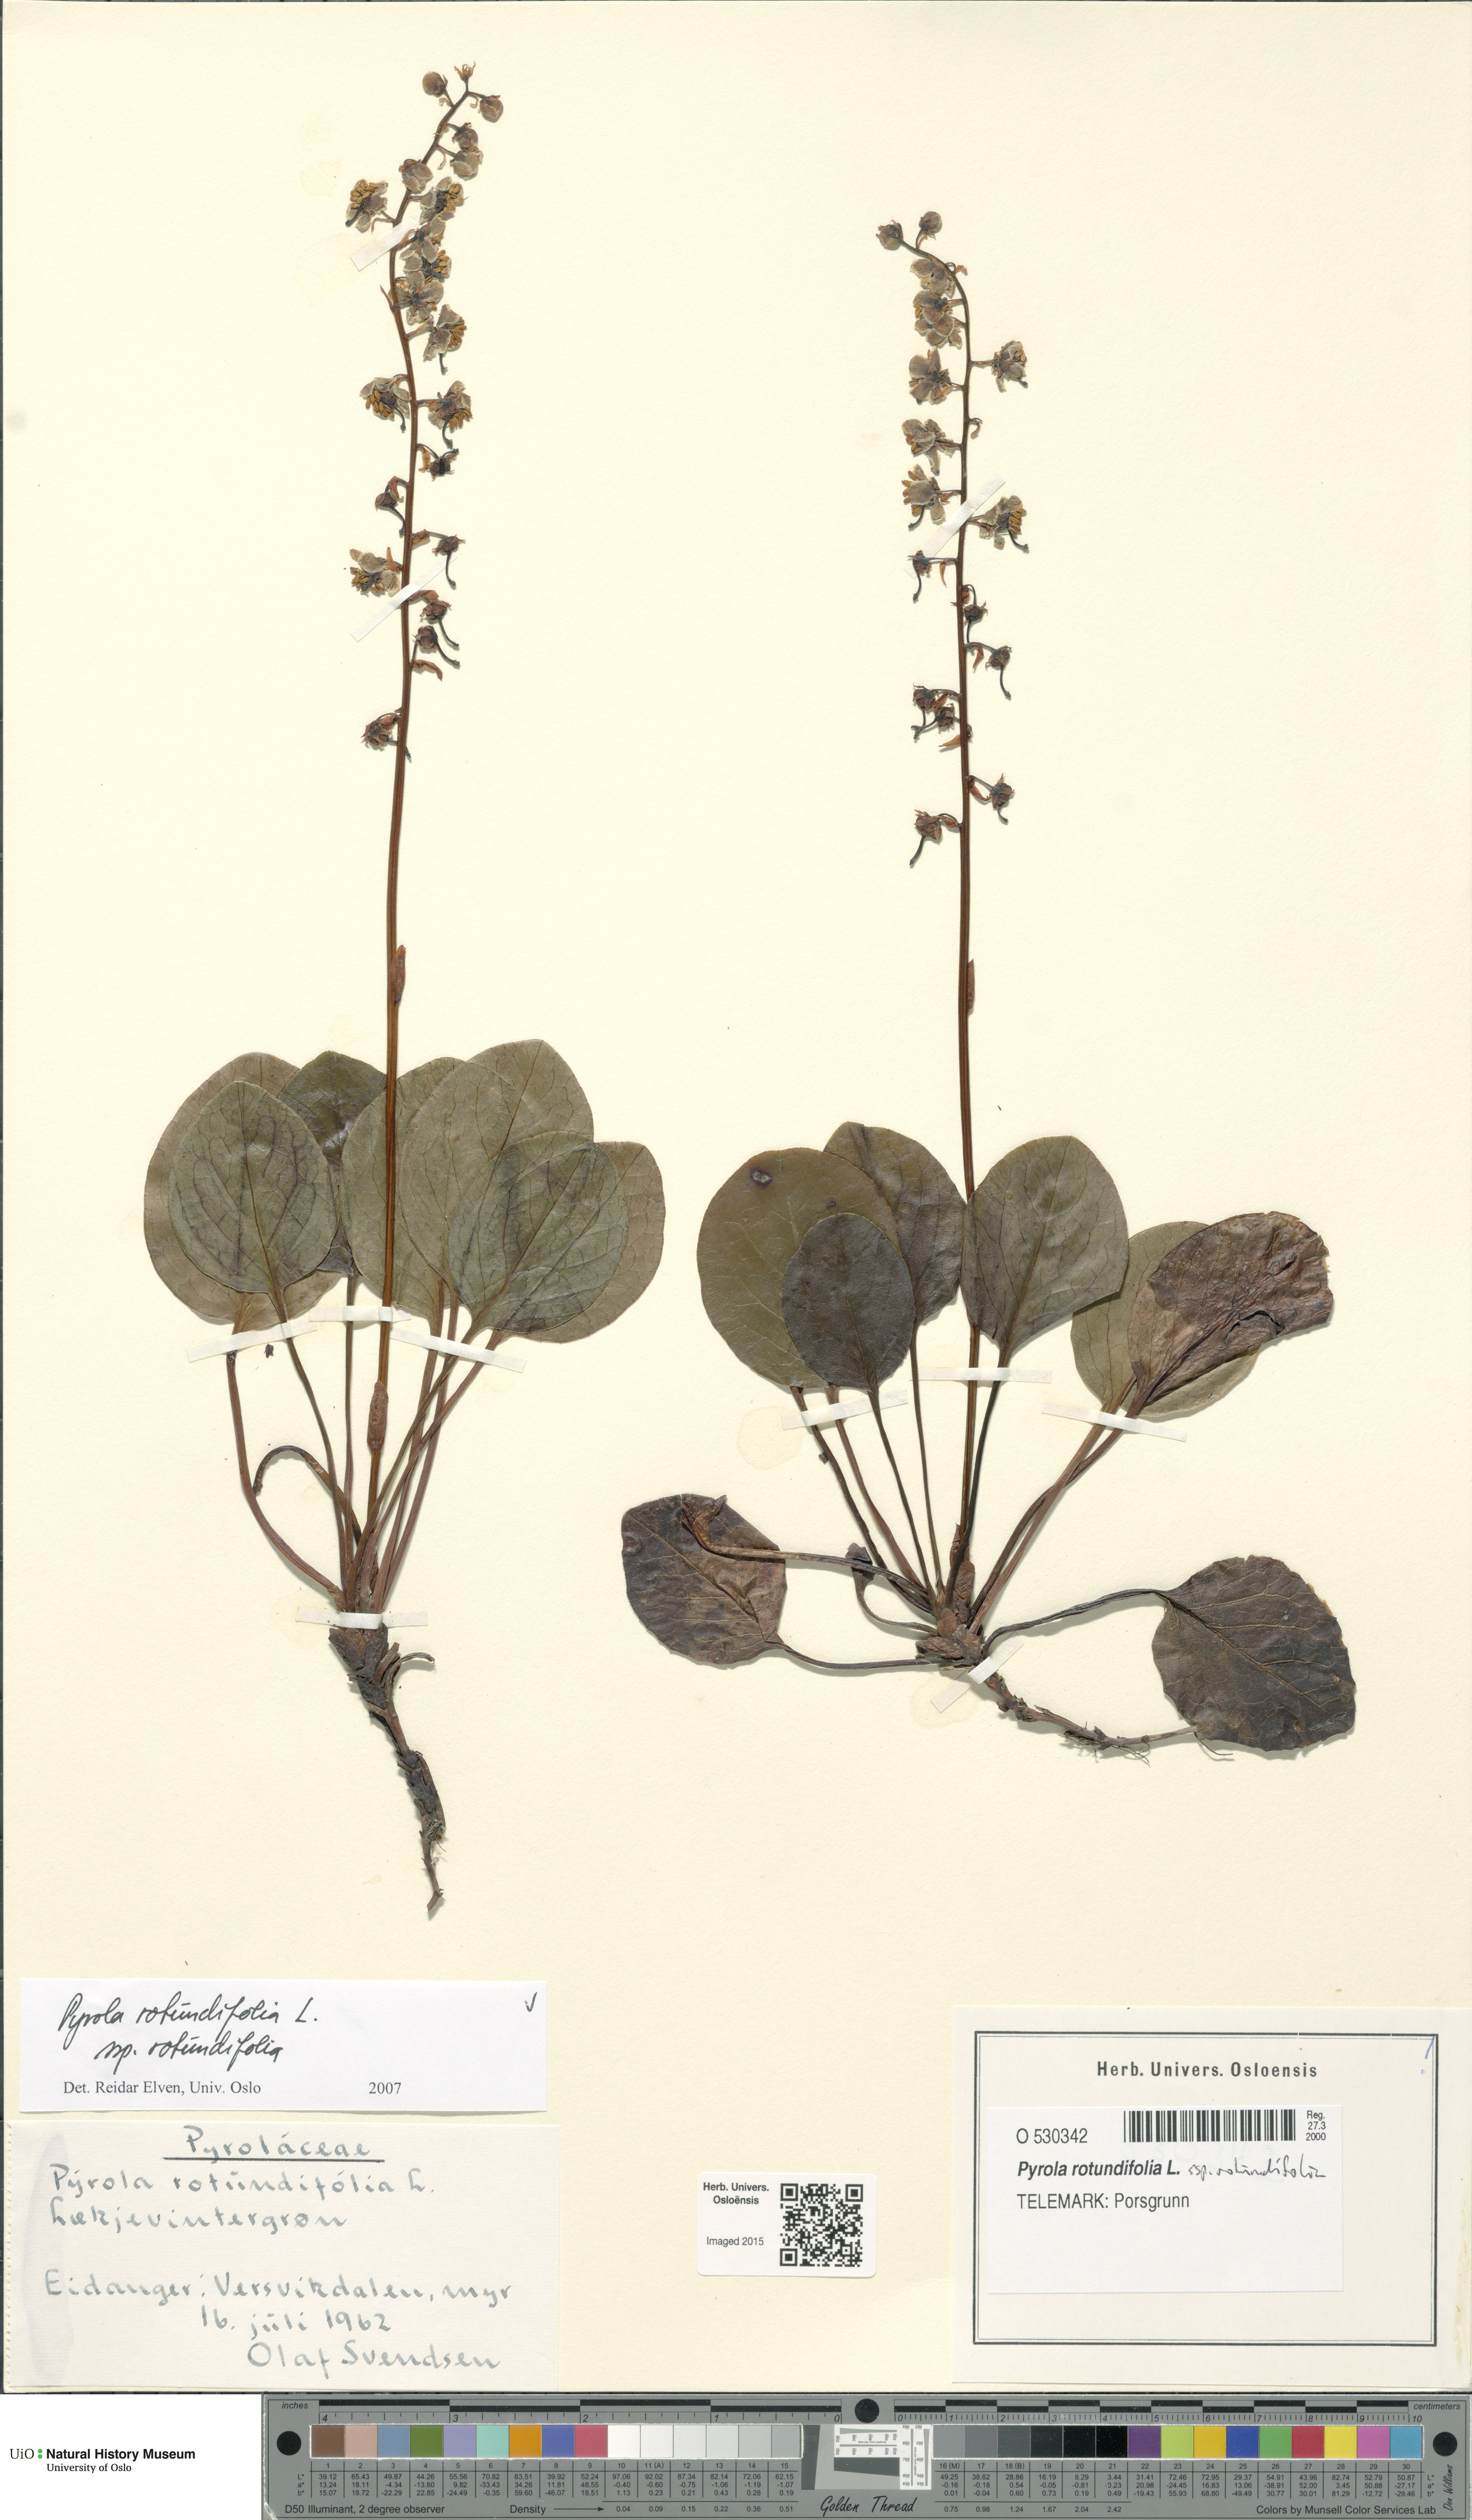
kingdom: Plantae
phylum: Tracheophyta
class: Magnoliopsida
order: Ericales
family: Ericaceae
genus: Pyrola
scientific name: Pyrola rotundifolia
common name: Round-leaved wintergreen
